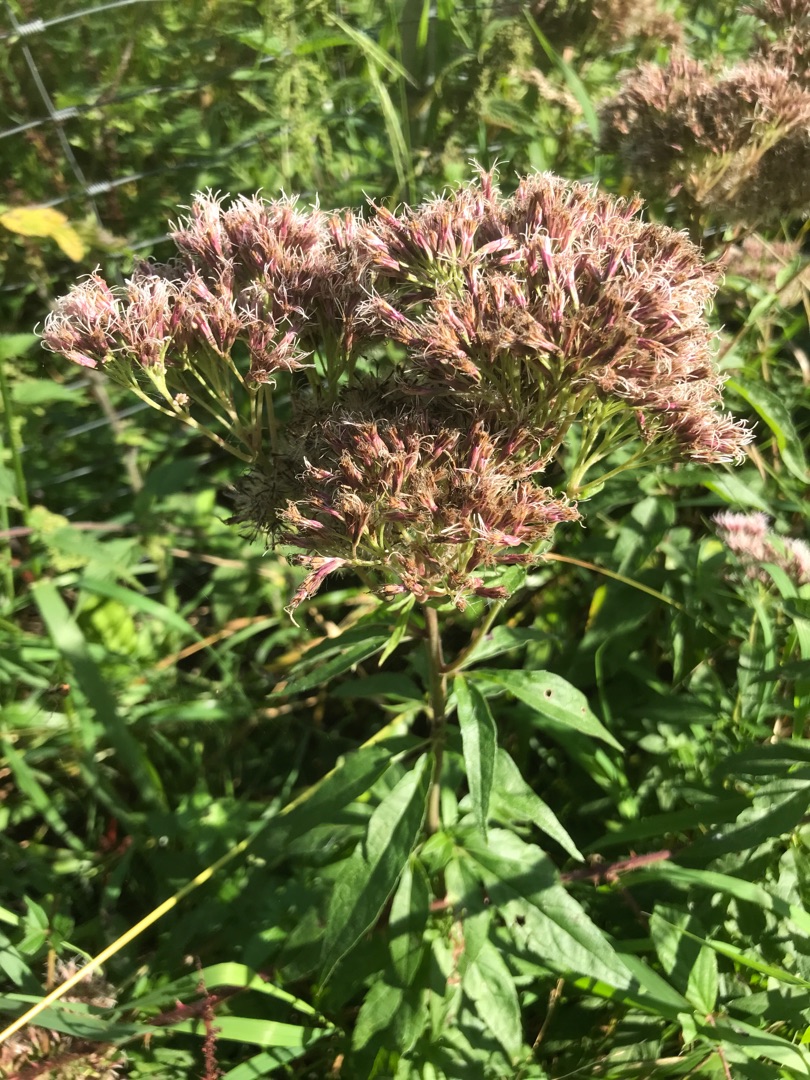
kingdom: Plantae
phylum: Tracheophyta
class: Magnoliopsida
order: Asterales
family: Asteraceae
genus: Eupatorium
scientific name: Eupatorium cannabinum
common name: Hjortetrøst
